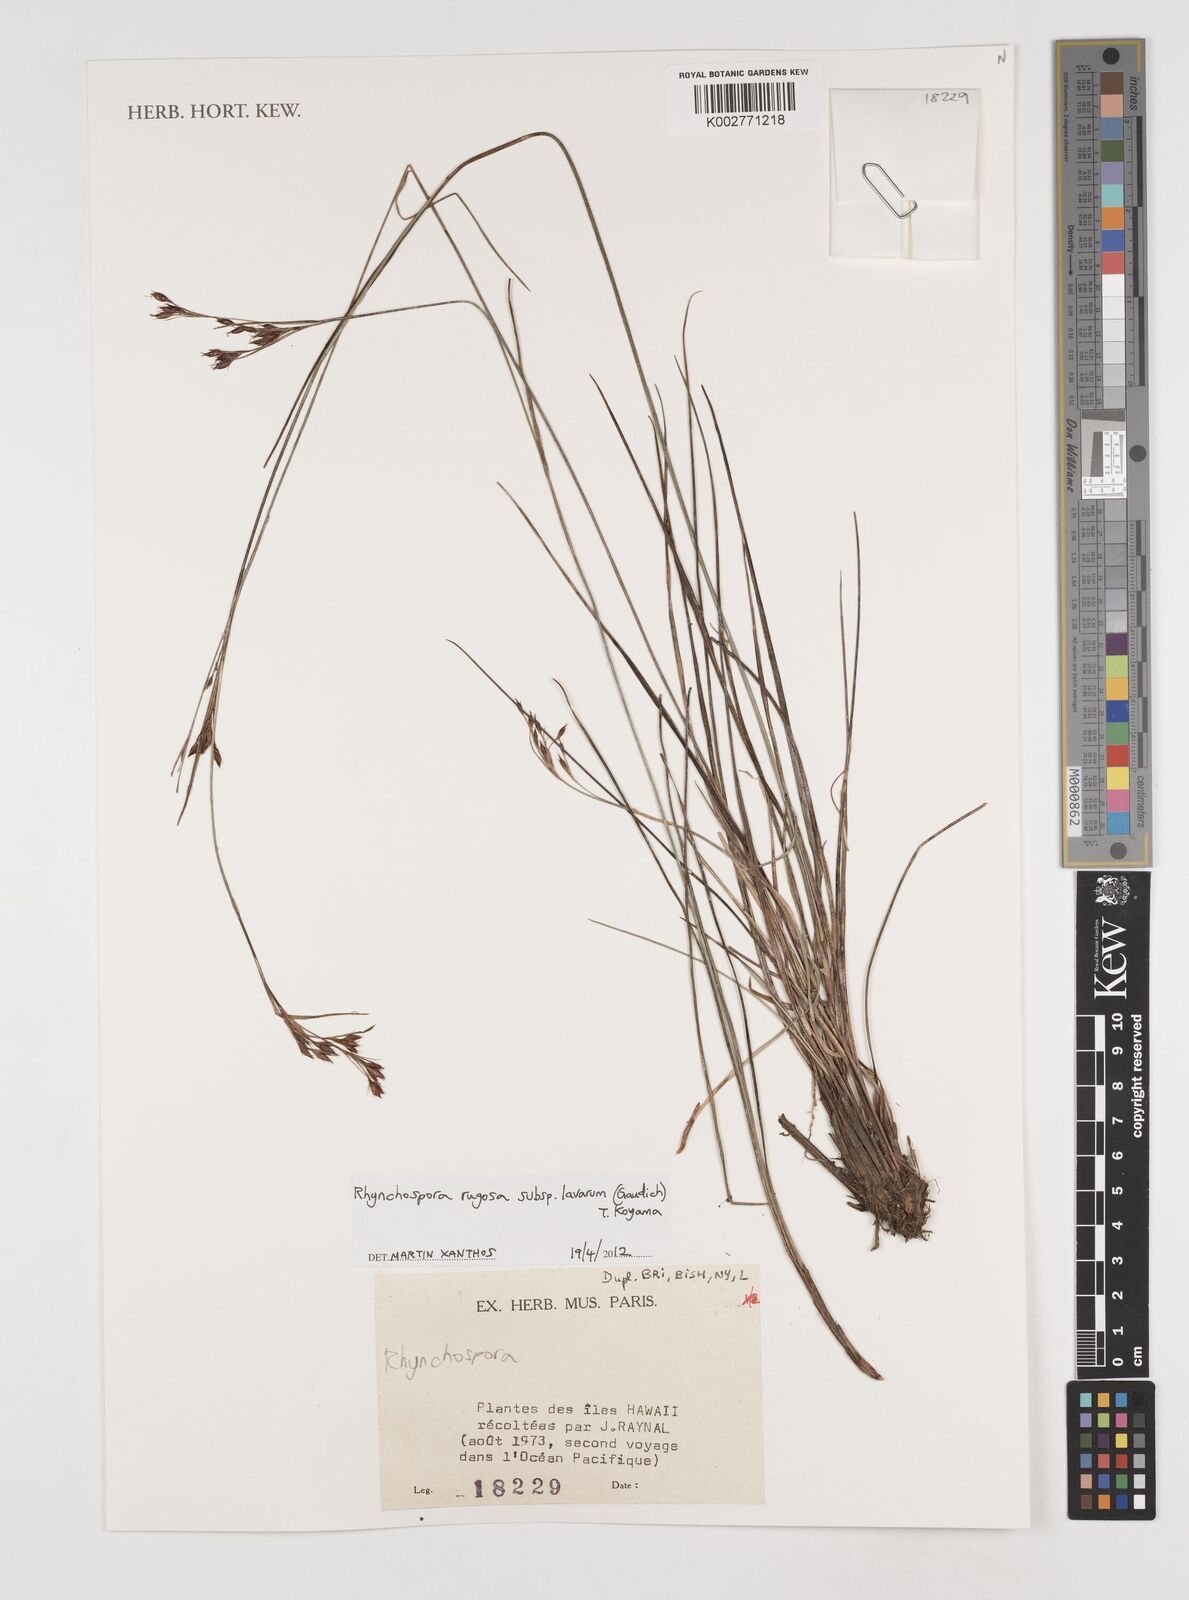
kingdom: Plantae
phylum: Tracheophyta
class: Liliopsida
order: Poales
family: Cyperaceae
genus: Rhynchospora
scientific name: Rhynchospora rugosa
